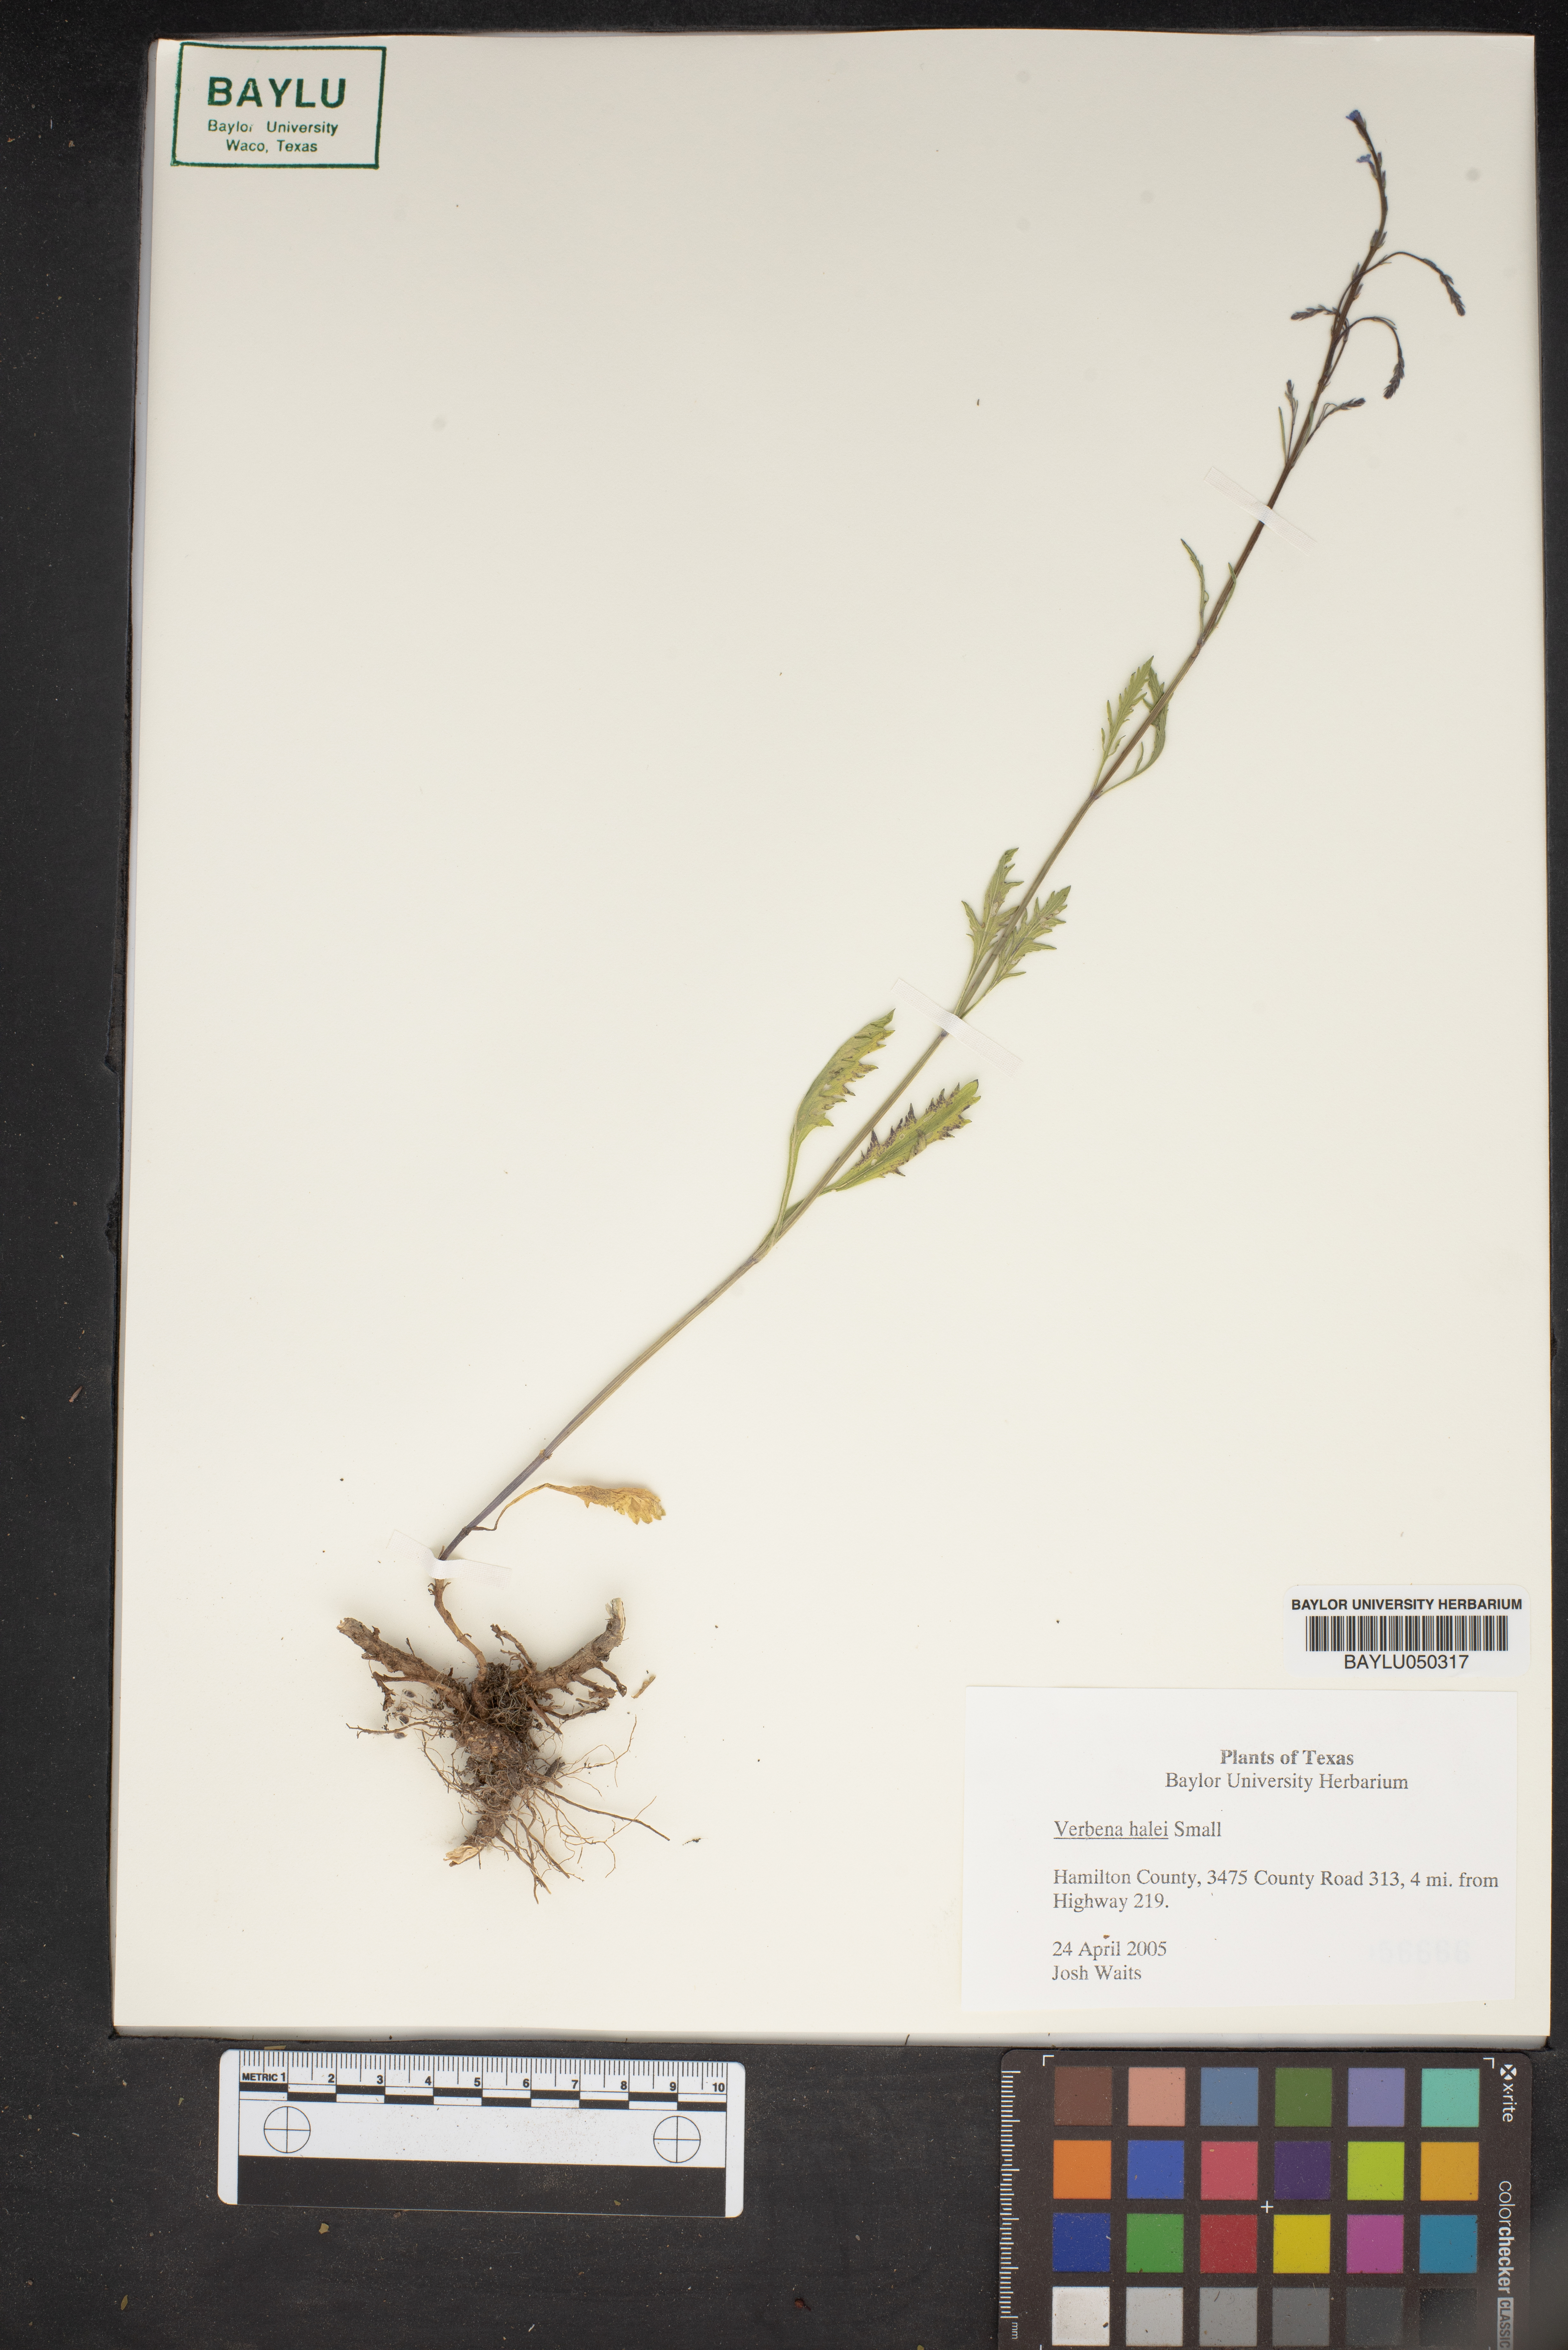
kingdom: Plantae
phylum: Tracheophyta
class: Magnoliopsida
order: Lamiales
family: Verbenaceae
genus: Verbena
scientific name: Verbena halei
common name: Texas vervain
